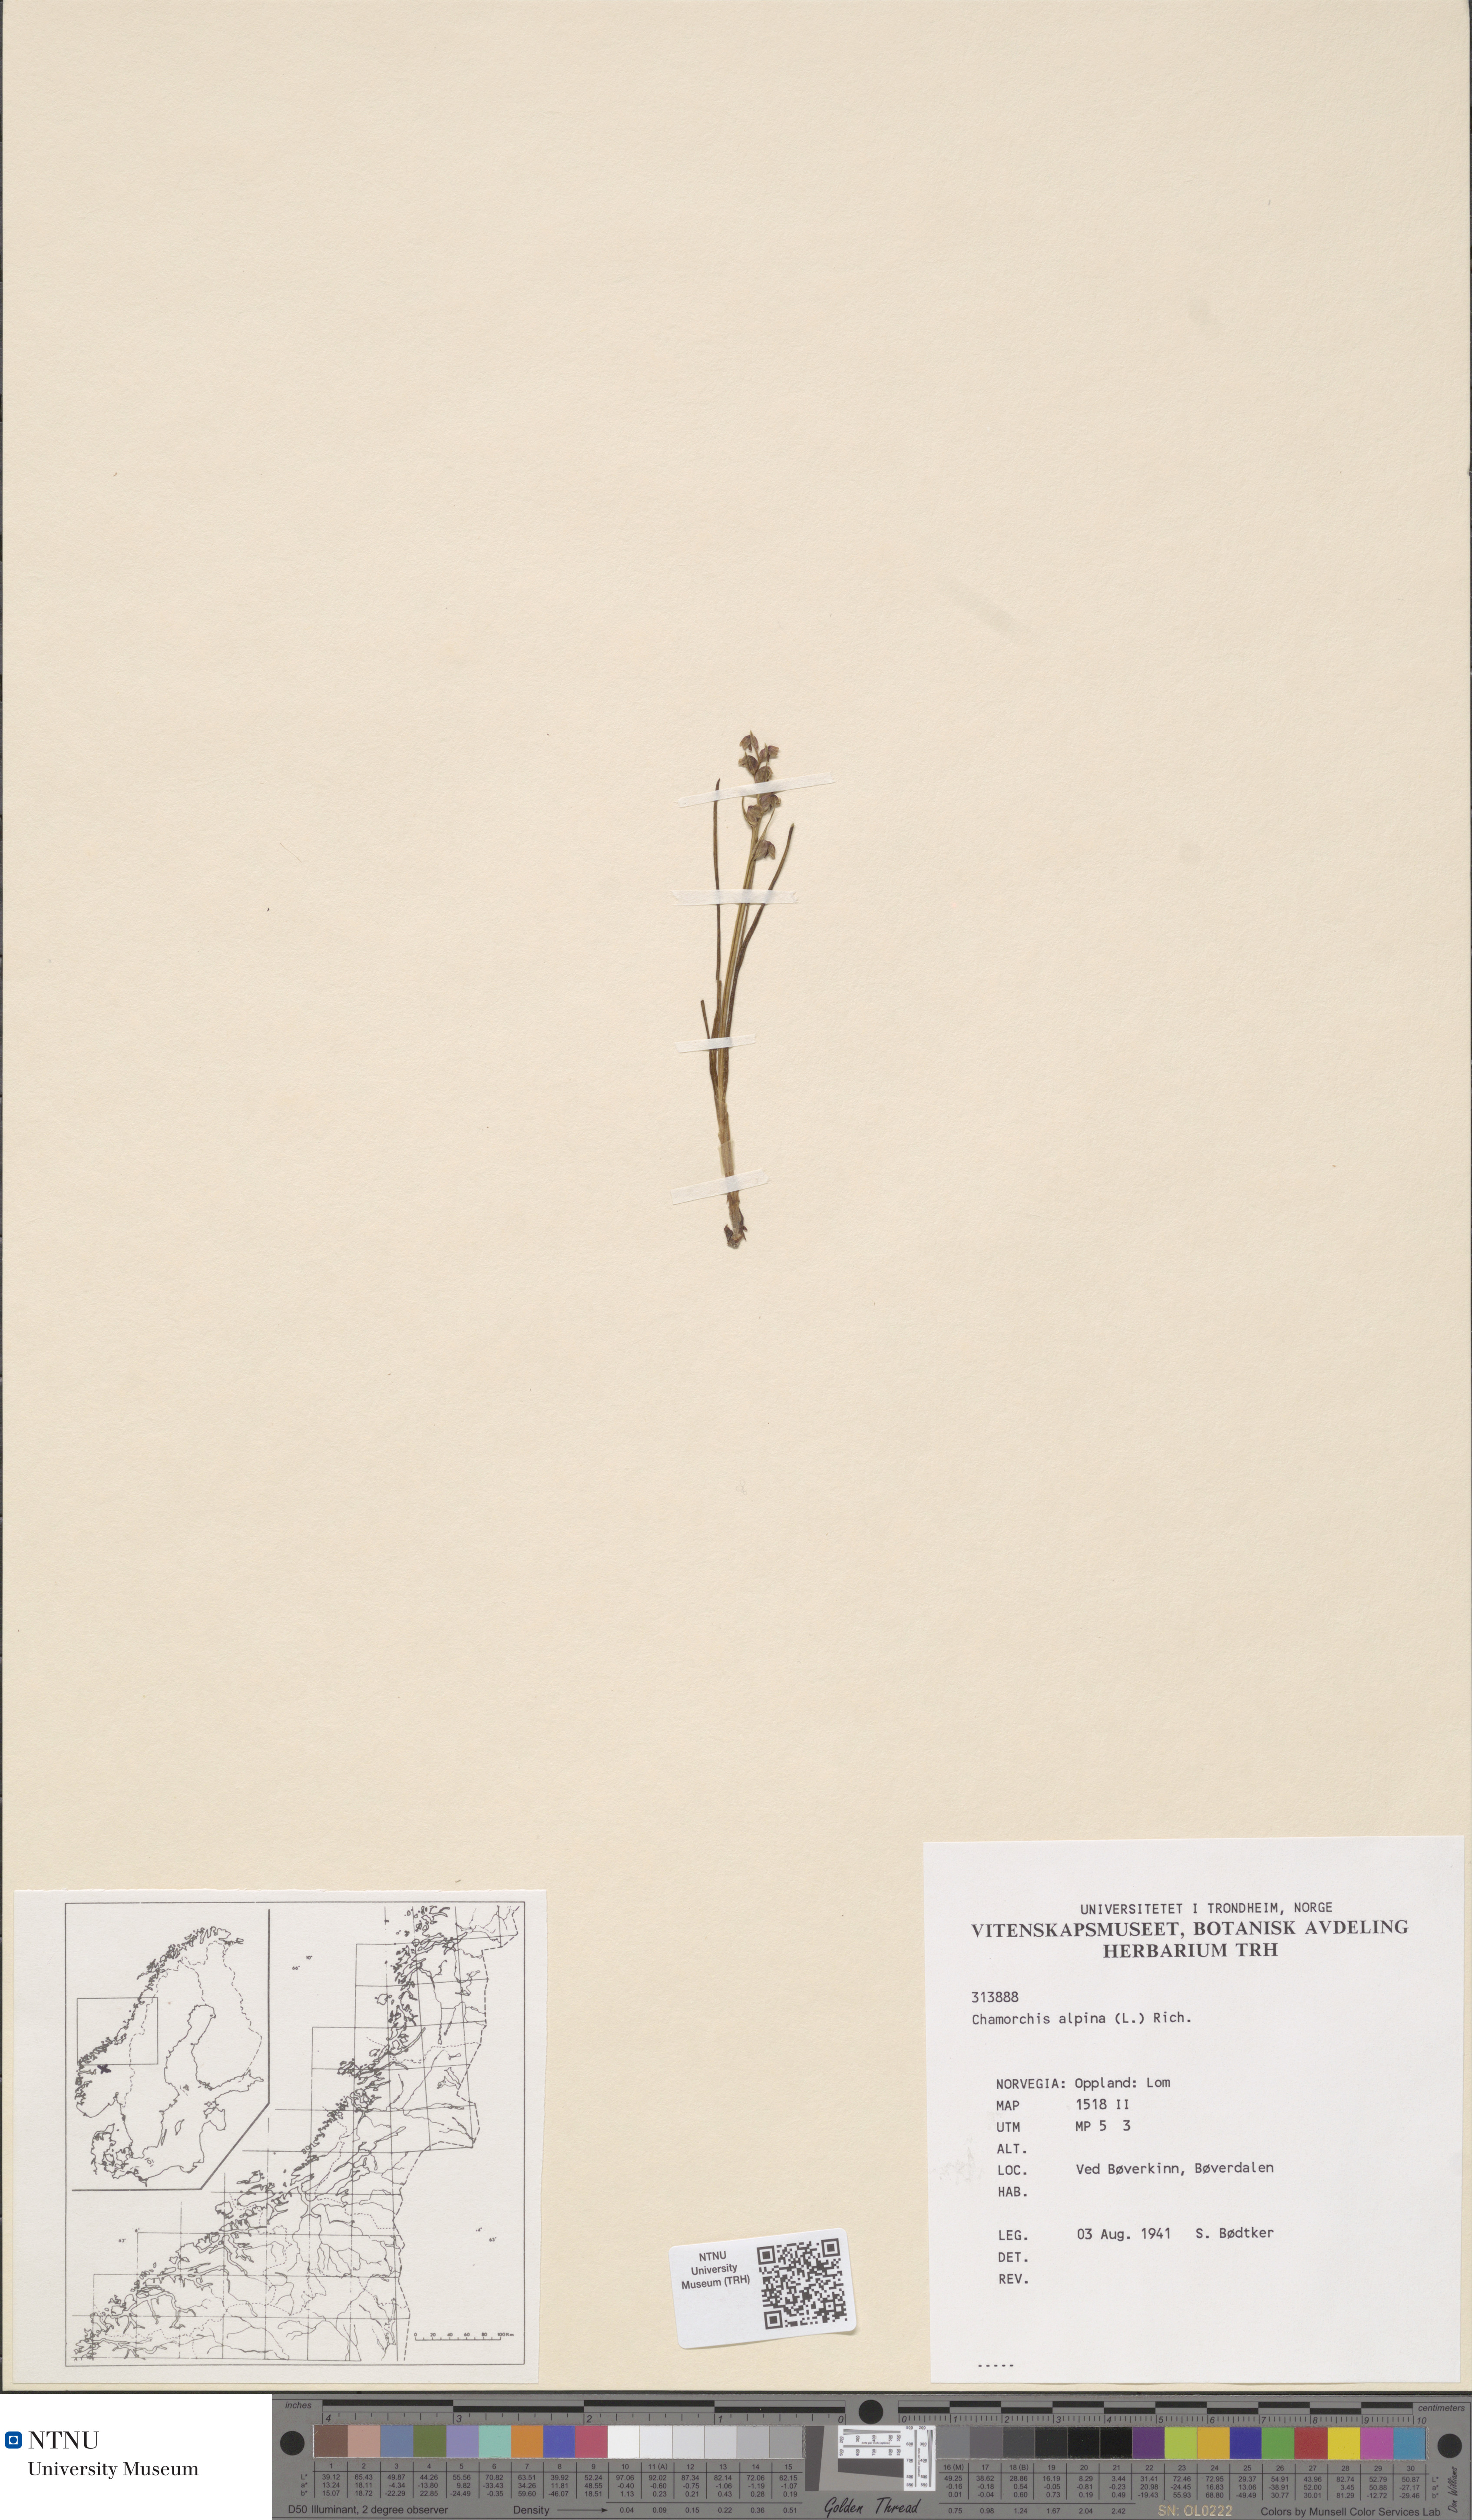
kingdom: Plantae
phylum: Tracheophyta
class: Liliopsida
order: Asparagales
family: Orchidaceae
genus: Chamorchis
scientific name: Chamorchis alpina
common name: Alpine chamorchis
